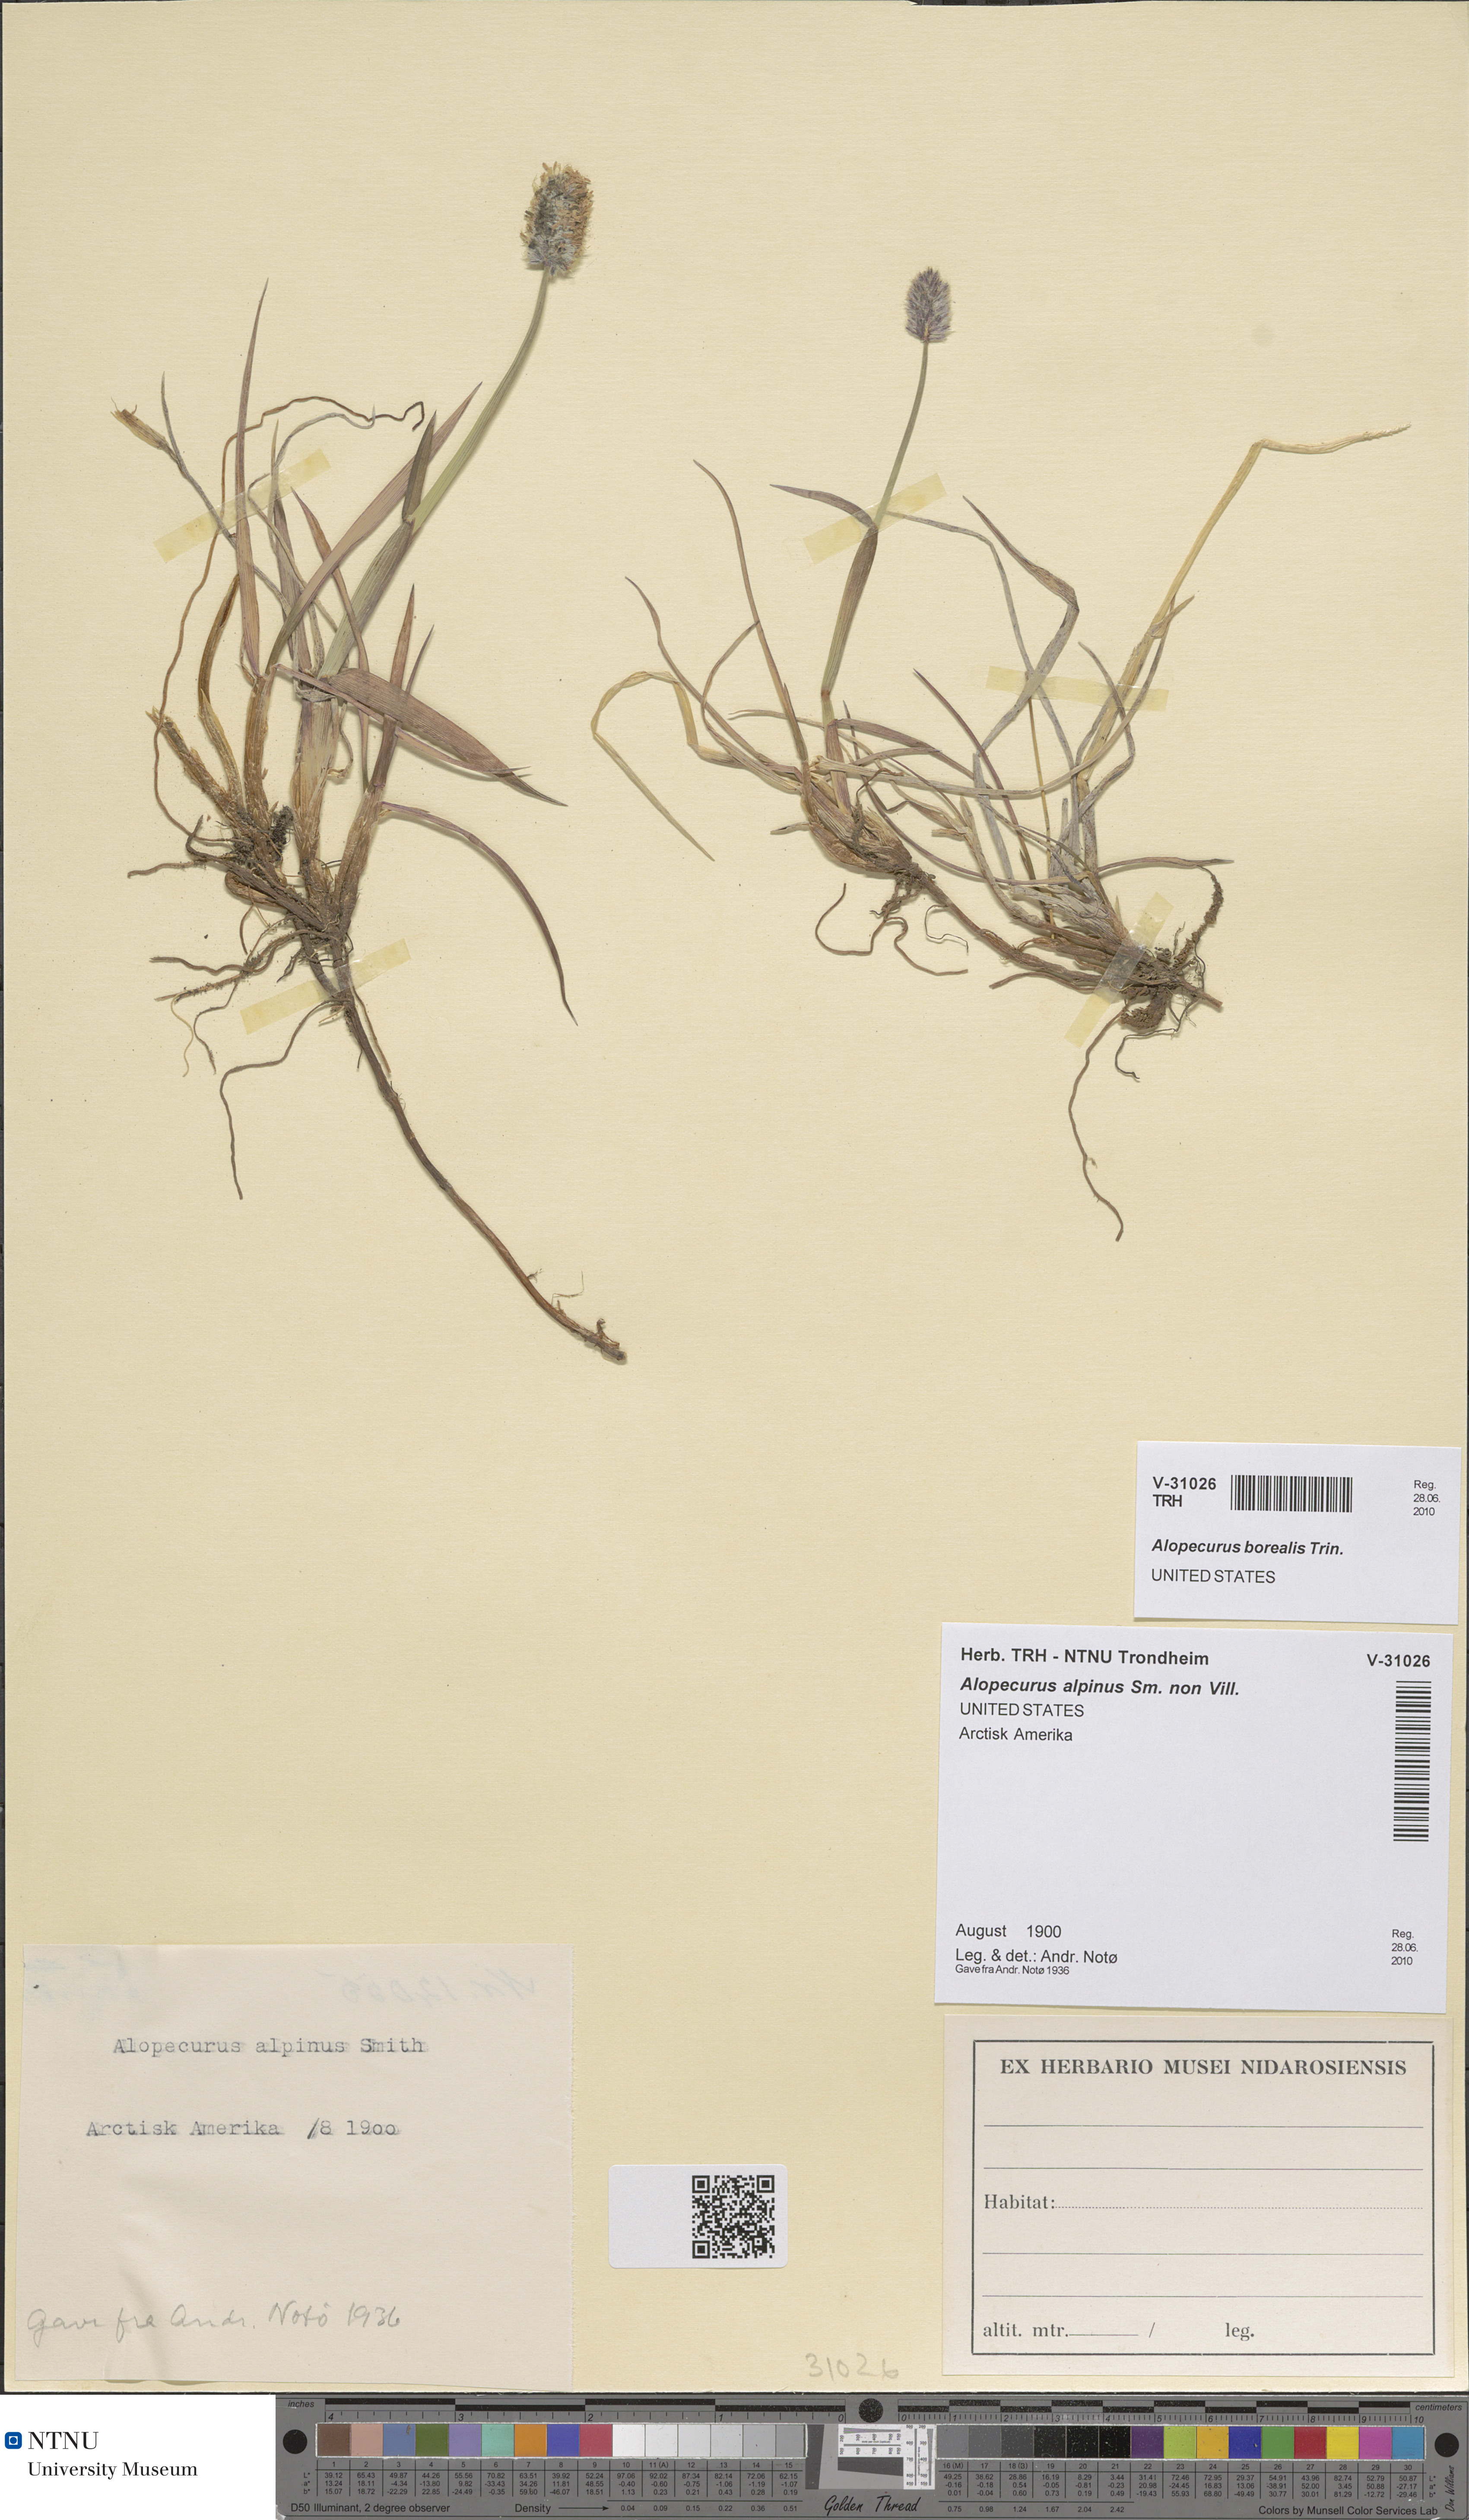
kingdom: Plantae
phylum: Tracheophyta
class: Liliopsida
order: Poales
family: Poaceae
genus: Alopecurus
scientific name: Alopecurus magellanicus
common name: Alpine foxtail
